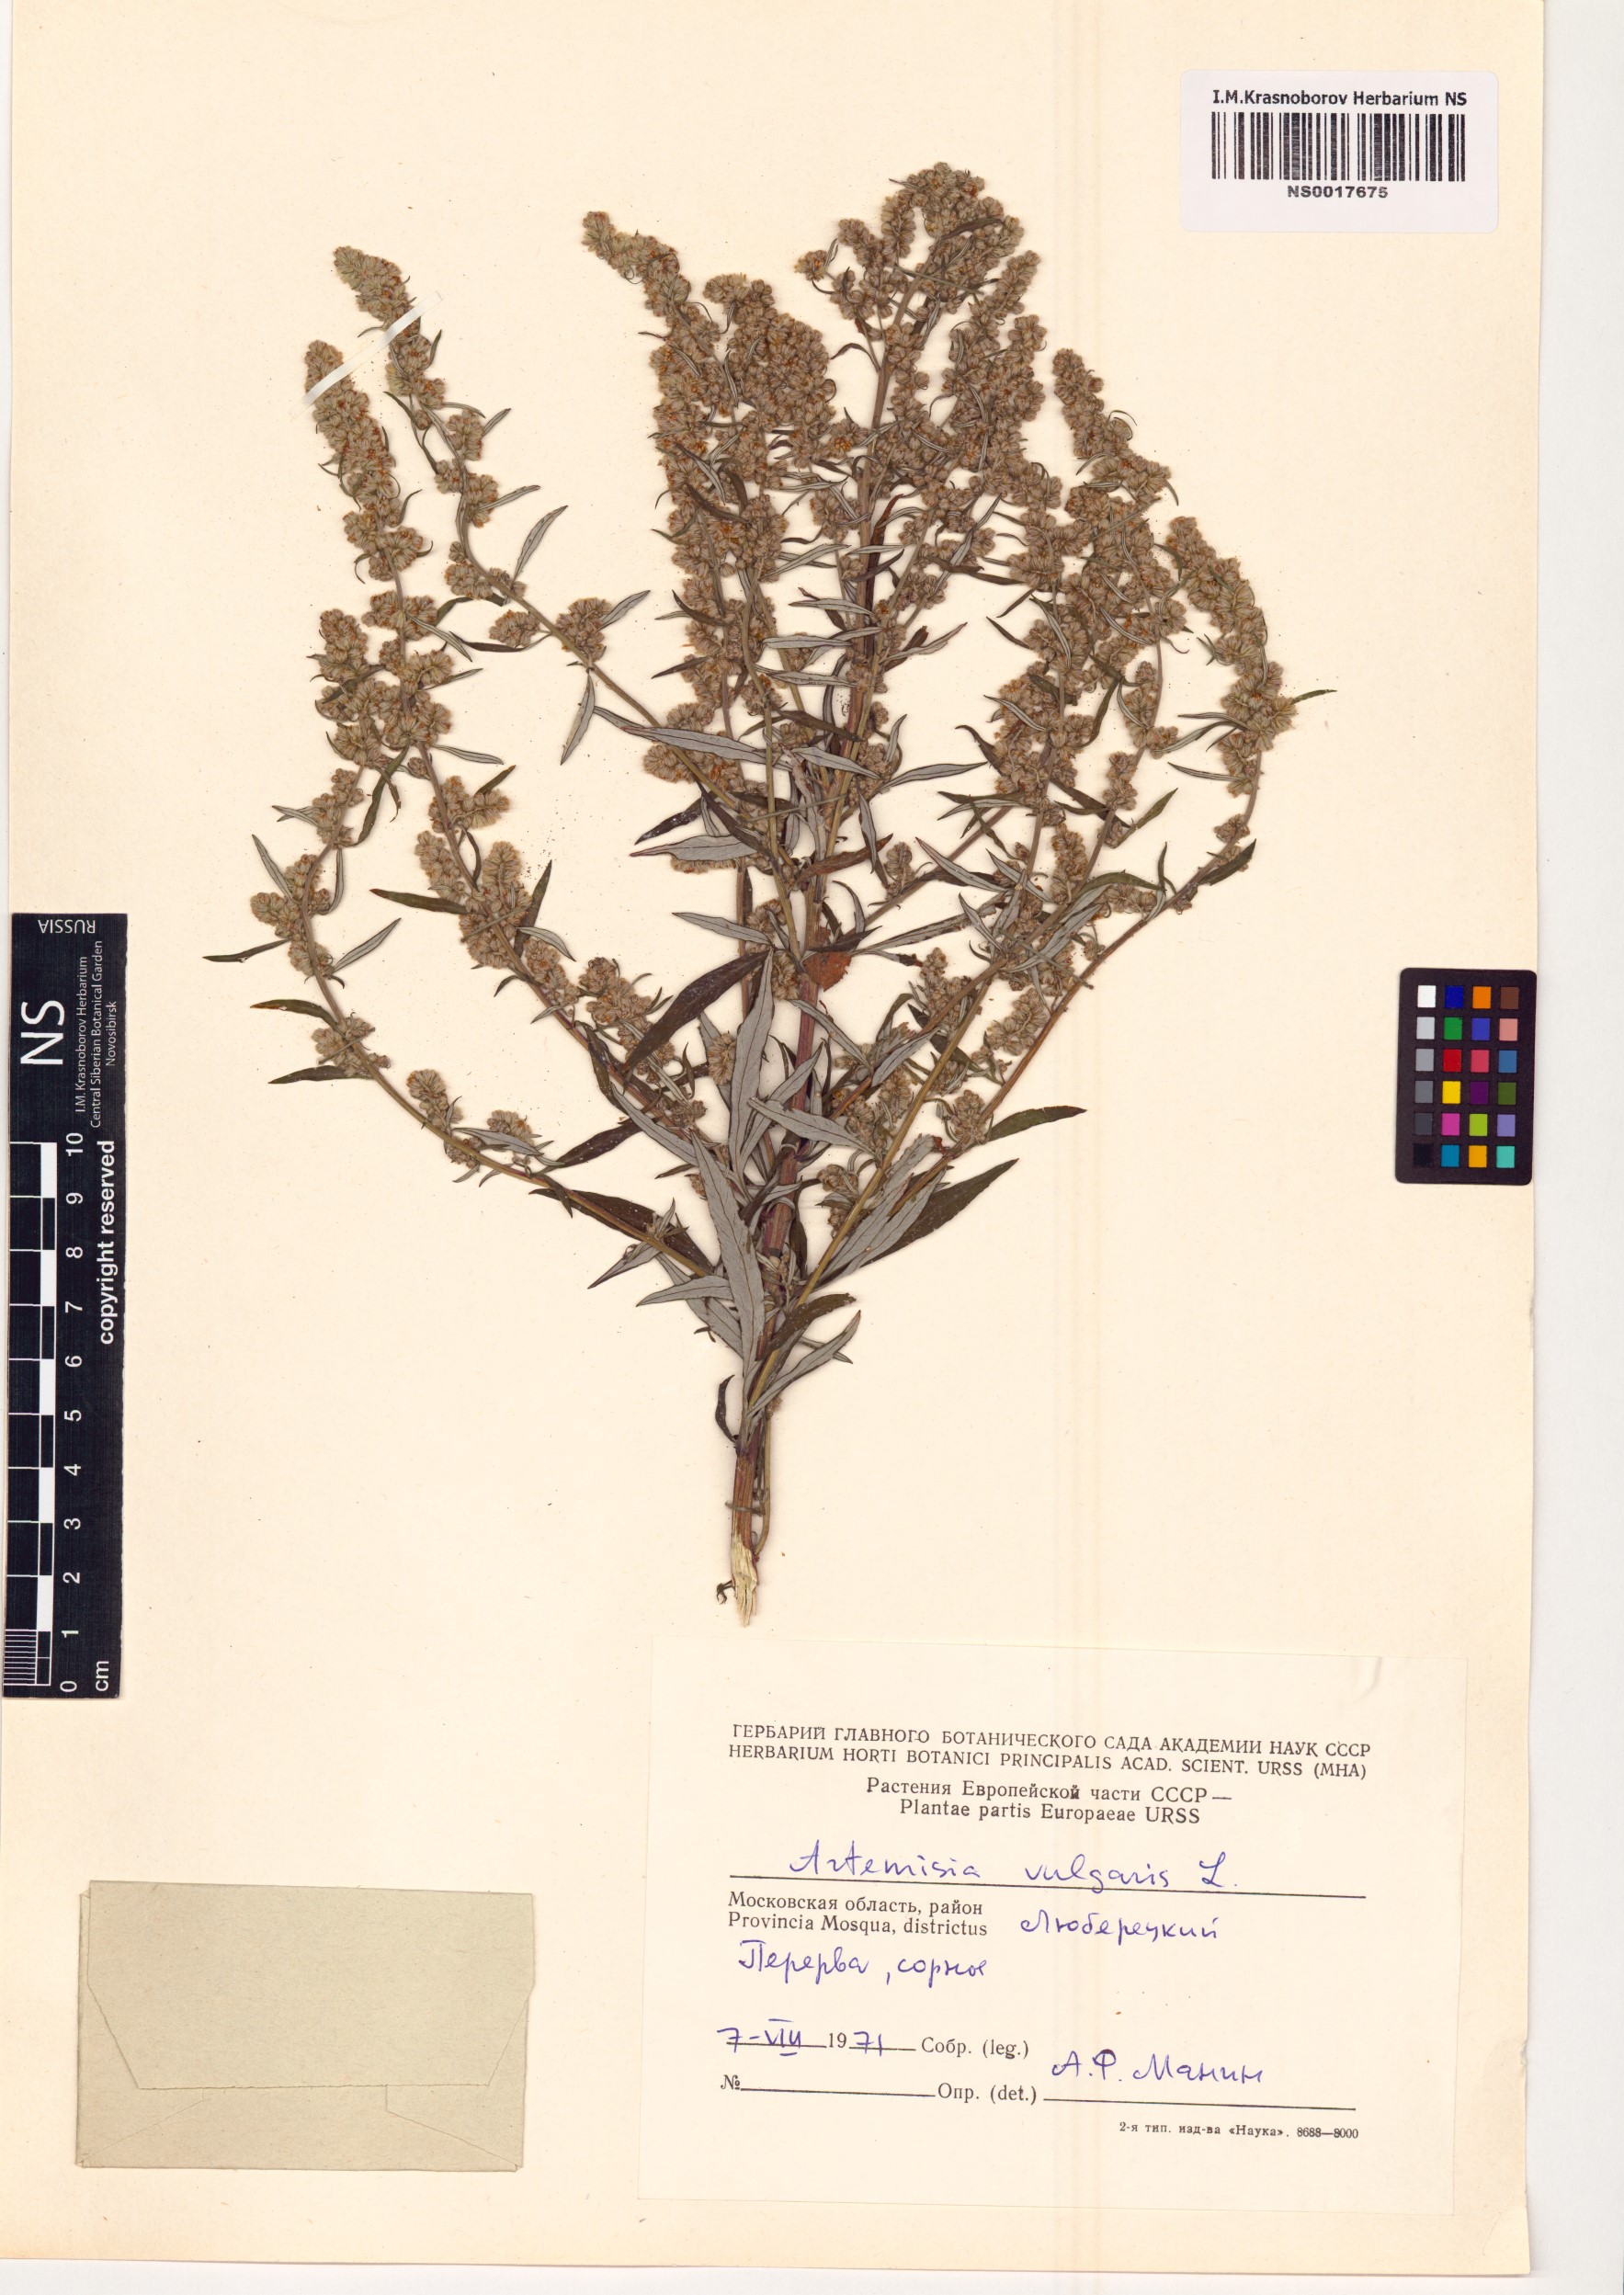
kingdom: Plantae
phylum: Tracheophyta
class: Magnoliopsida
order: Asterales
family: Asteraceae
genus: Artemisia
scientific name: Artemisia vulgaris
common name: Mugwort
